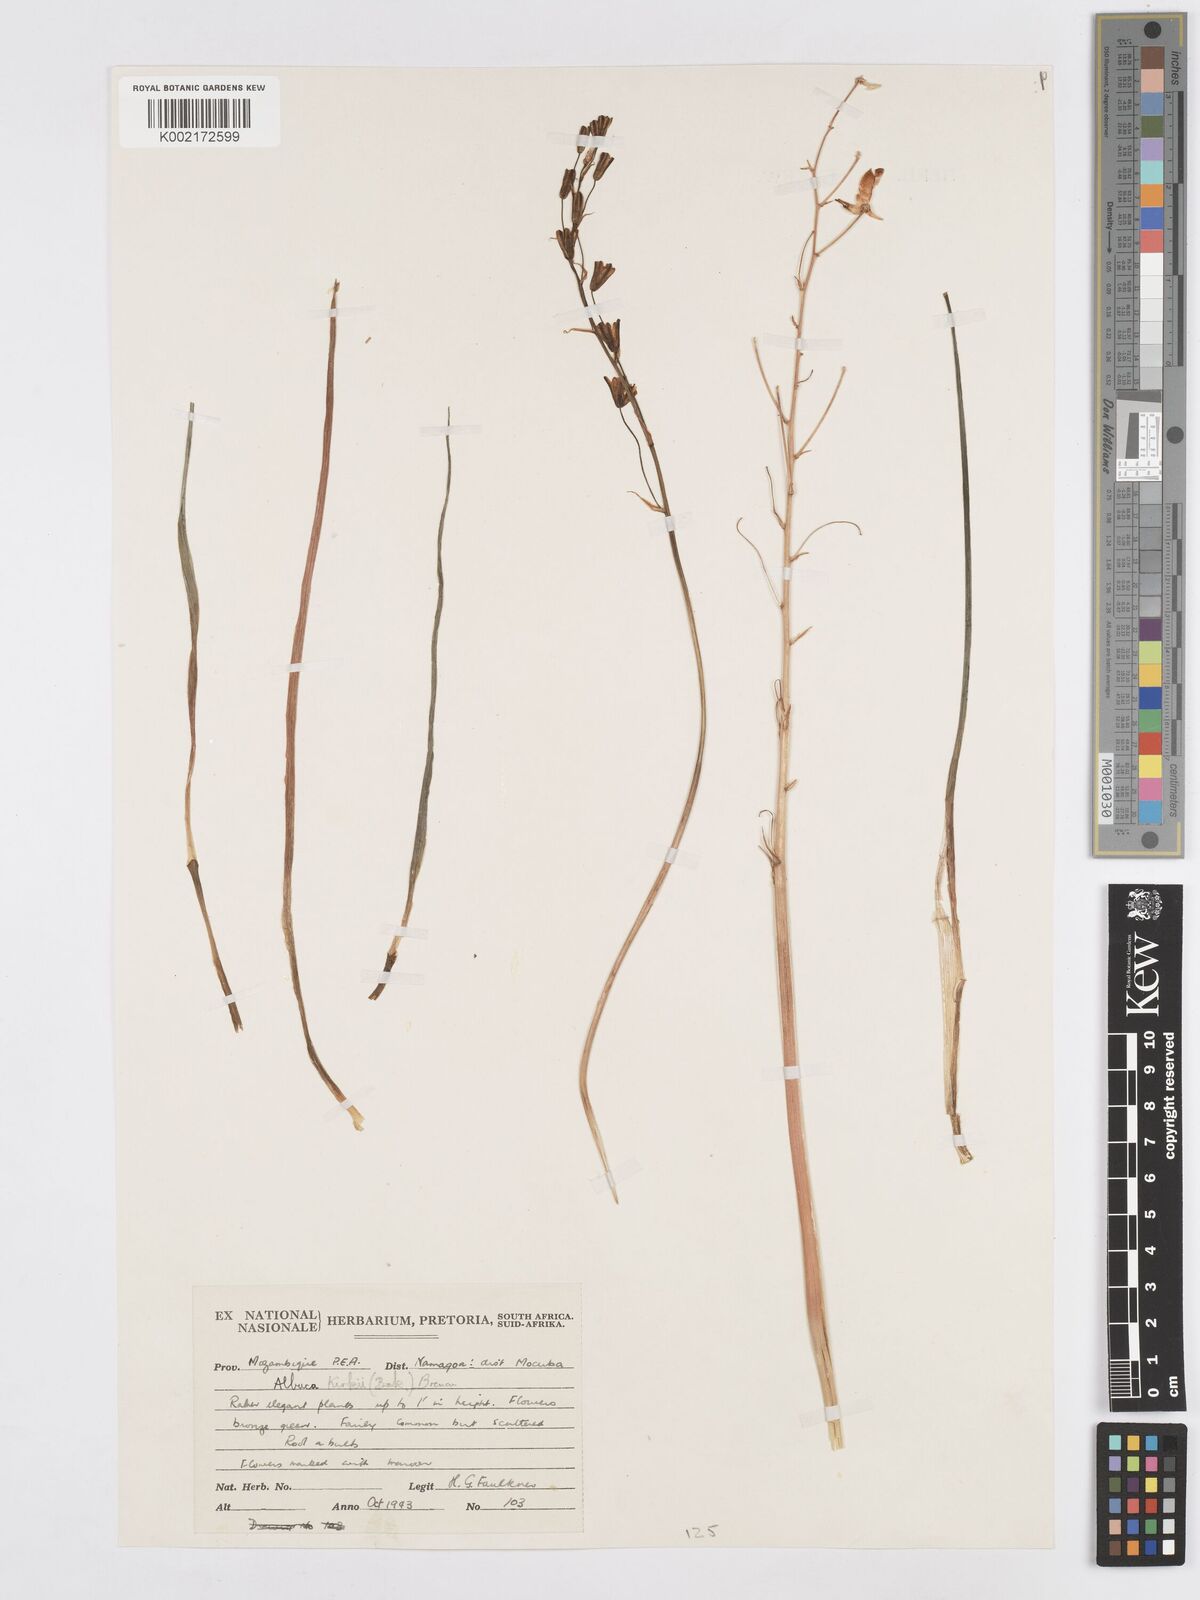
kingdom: Plantae
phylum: Tracheophyta
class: Liliopsida
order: Asparagales
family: Asparagaceae
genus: Albuca
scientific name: Albuca kirkii
